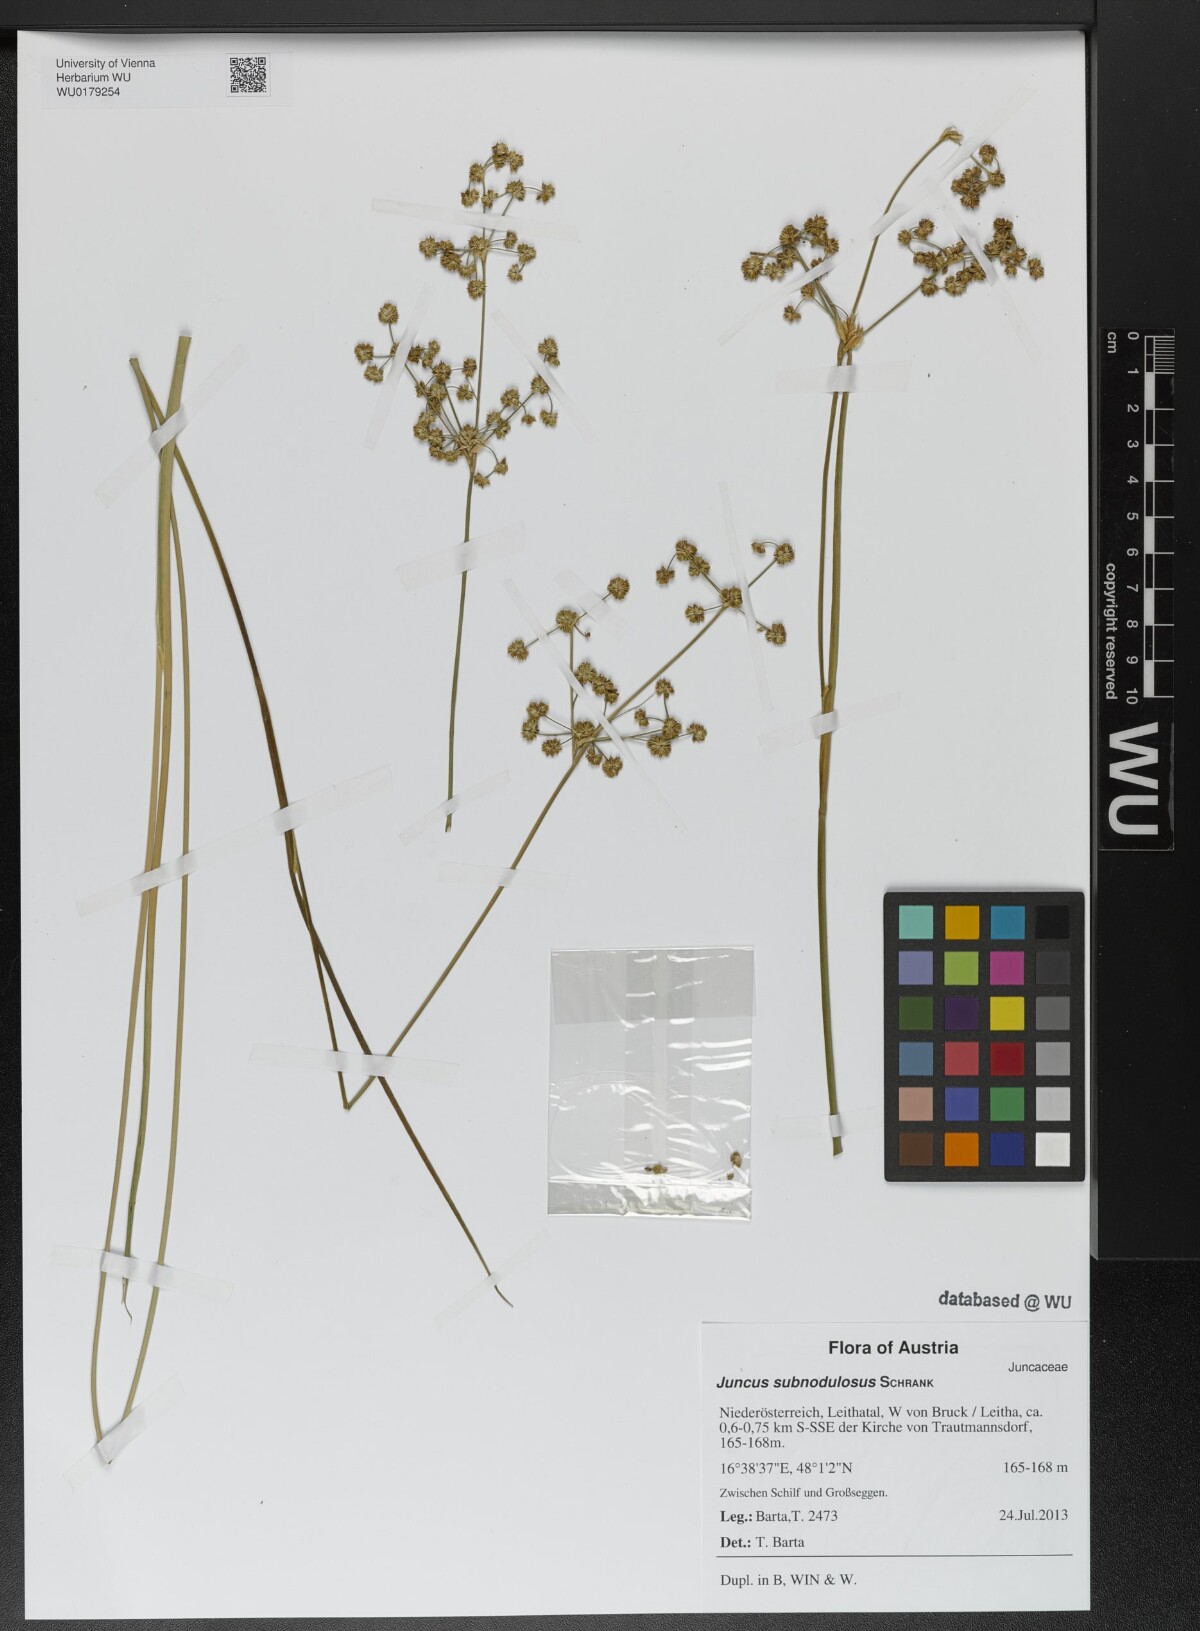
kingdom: Plantae
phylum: Tracheophyta
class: Liliopsida
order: Poales
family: Juncaceae
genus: Juncus
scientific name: Juncus subnodulosus
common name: Blunt-flowered rush
